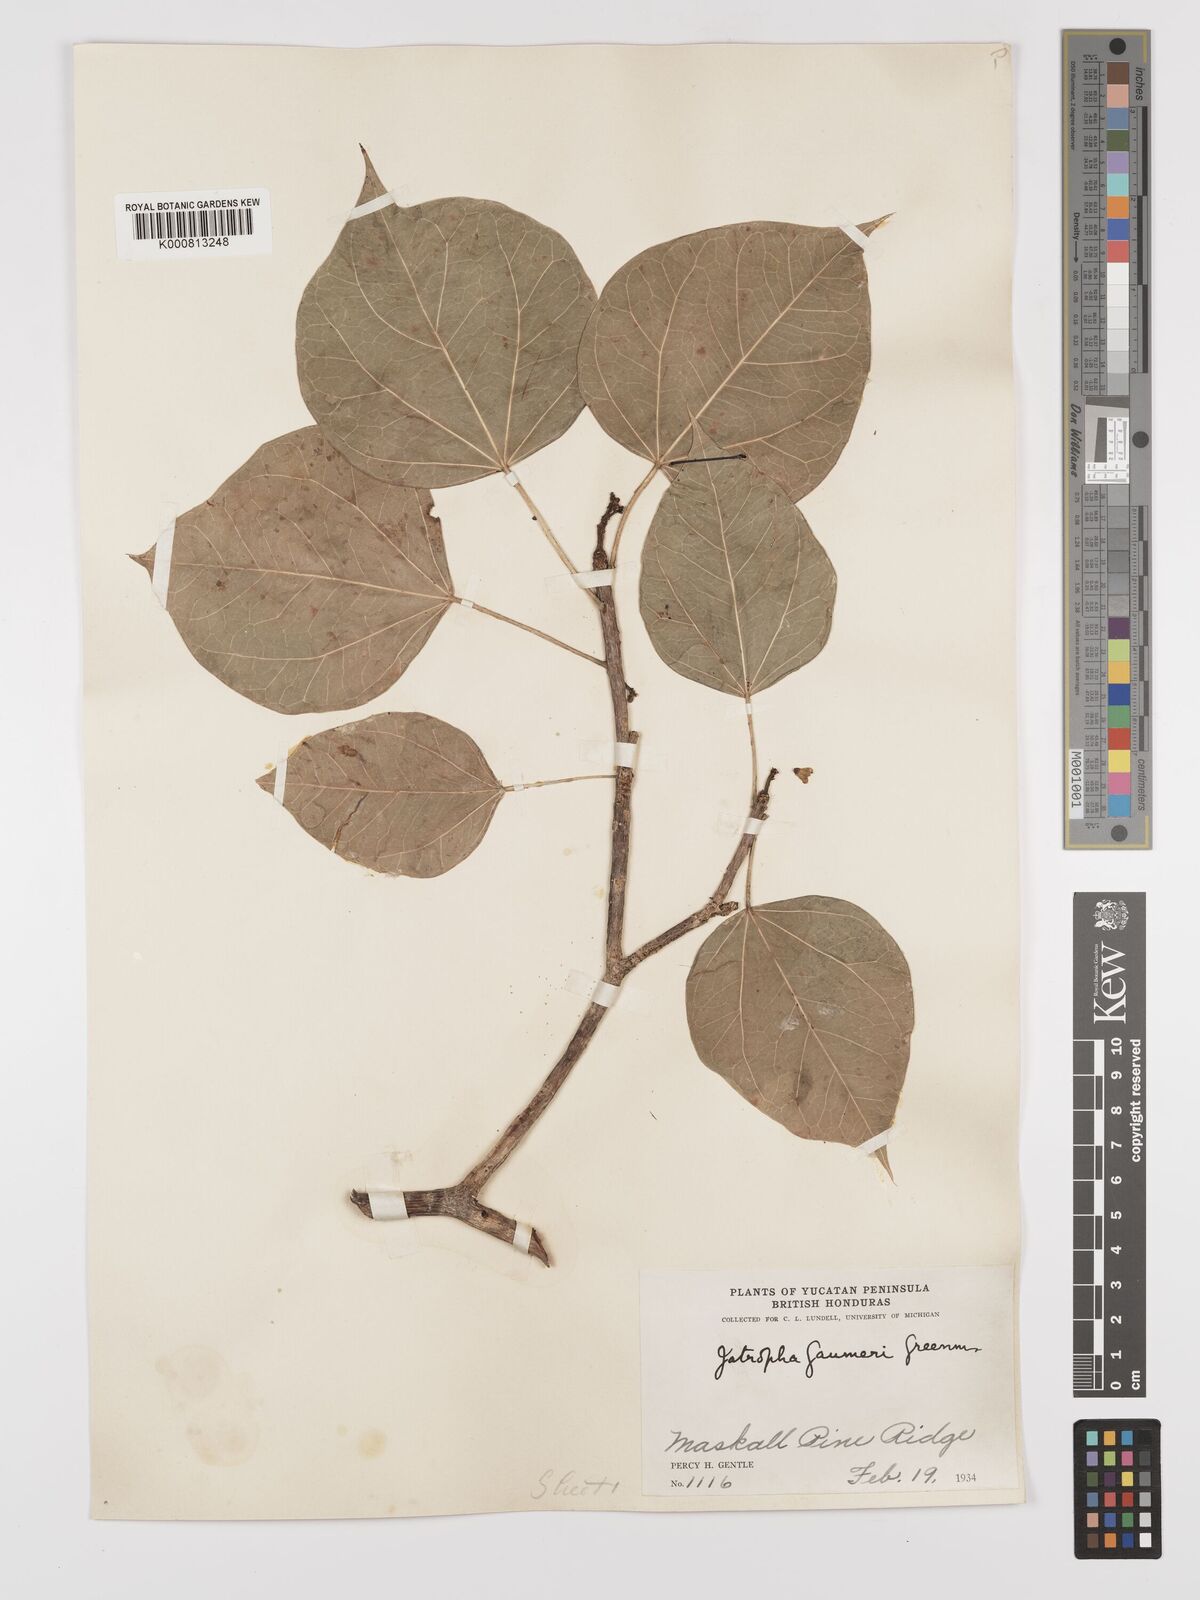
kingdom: Plantae
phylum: Tracheophyta
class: Magnoliopsida
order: Malpighiales
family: Euphorbiaceae
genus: Jatropha
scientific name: Jatropha gaumeri
